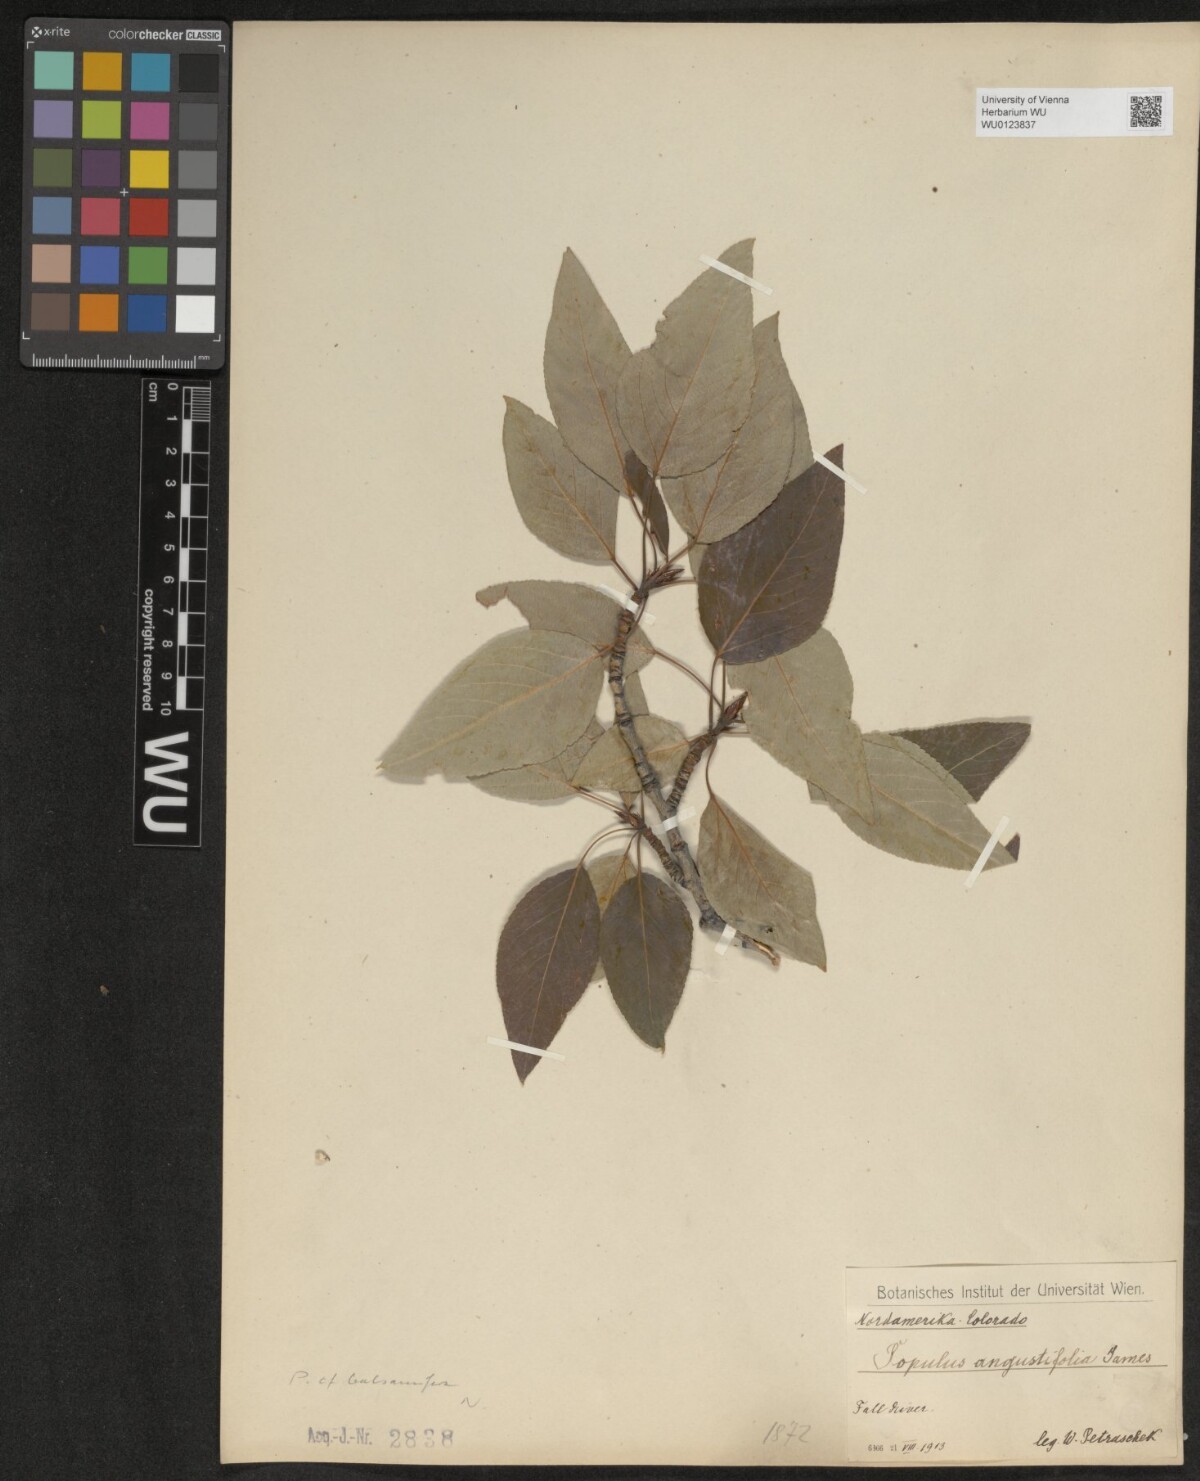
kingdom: Plantae
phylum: Tracheophyta
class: Magnoliopsida
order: Malpighiales
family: Salicaceae
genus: Populus
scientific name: Populus balsamifera
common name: Balsam poplar
